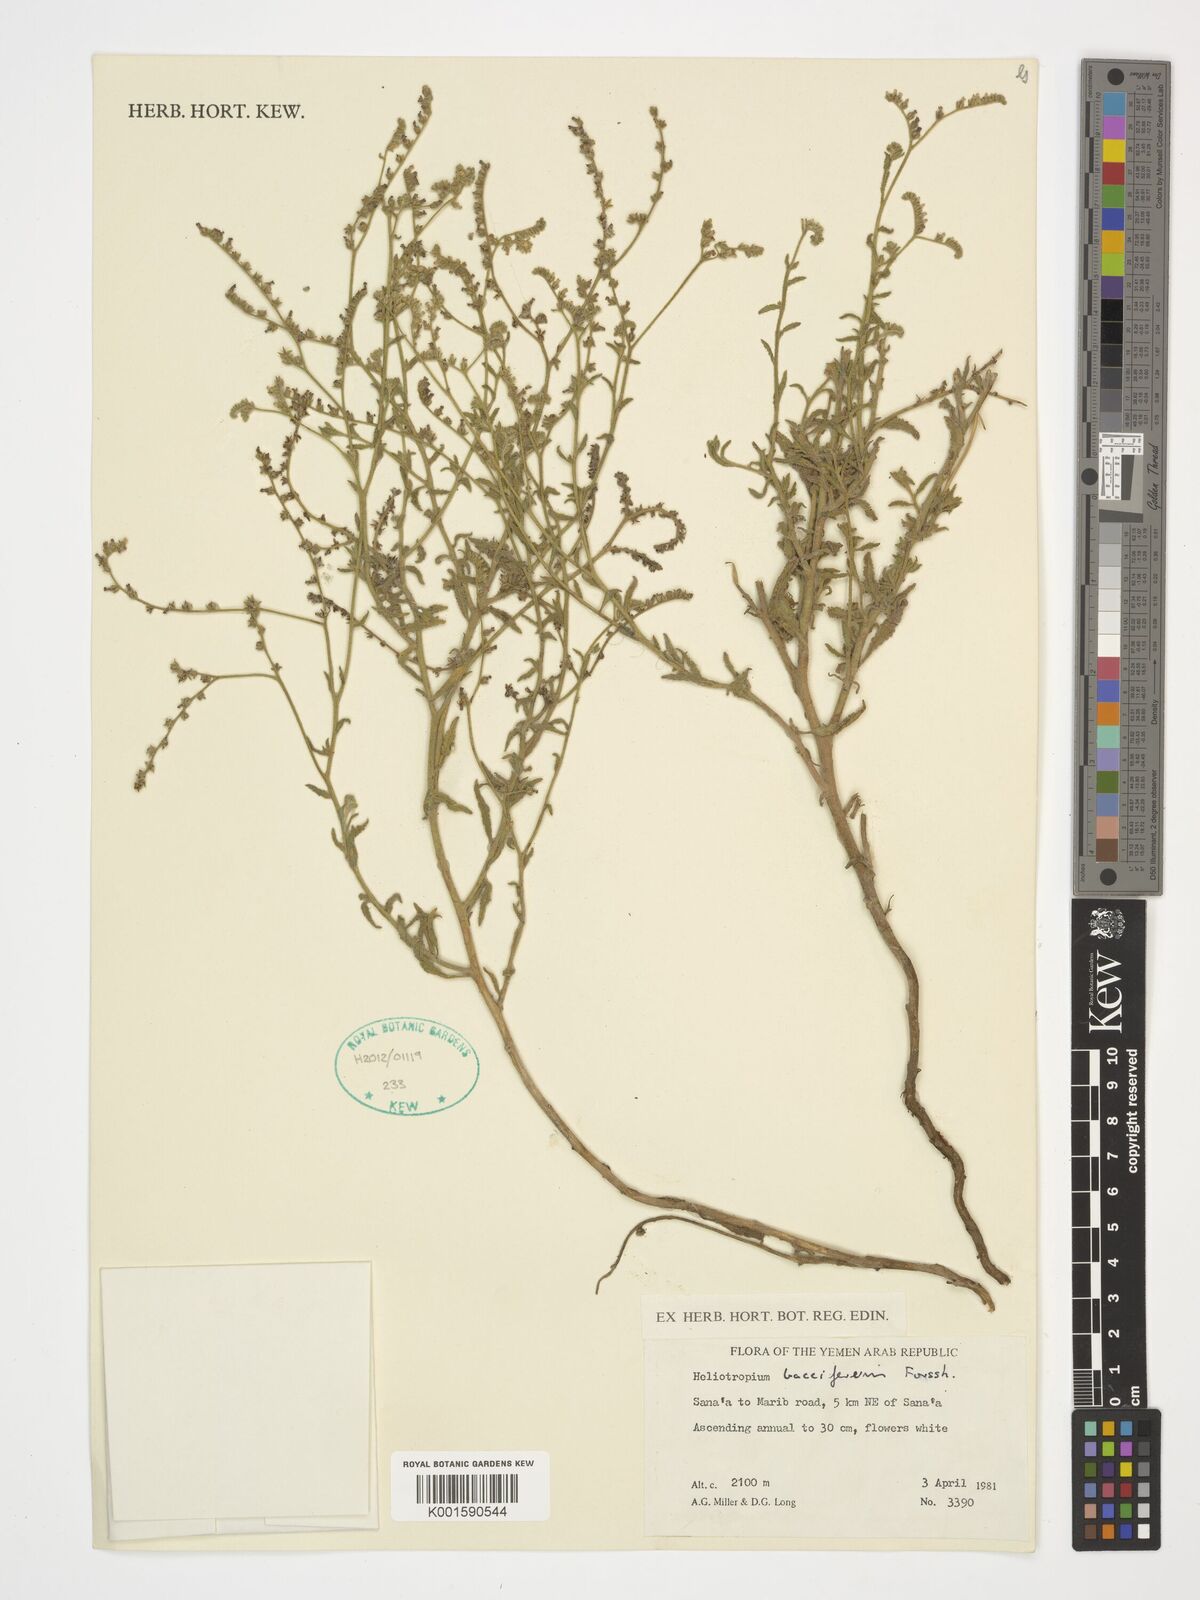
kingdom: Plantae
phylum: Tracheophyta
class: Magnoliopsida
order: Boraginales
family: Heliotropiaceae
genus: Heliotropium
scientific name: Heliotropium bacciferum
